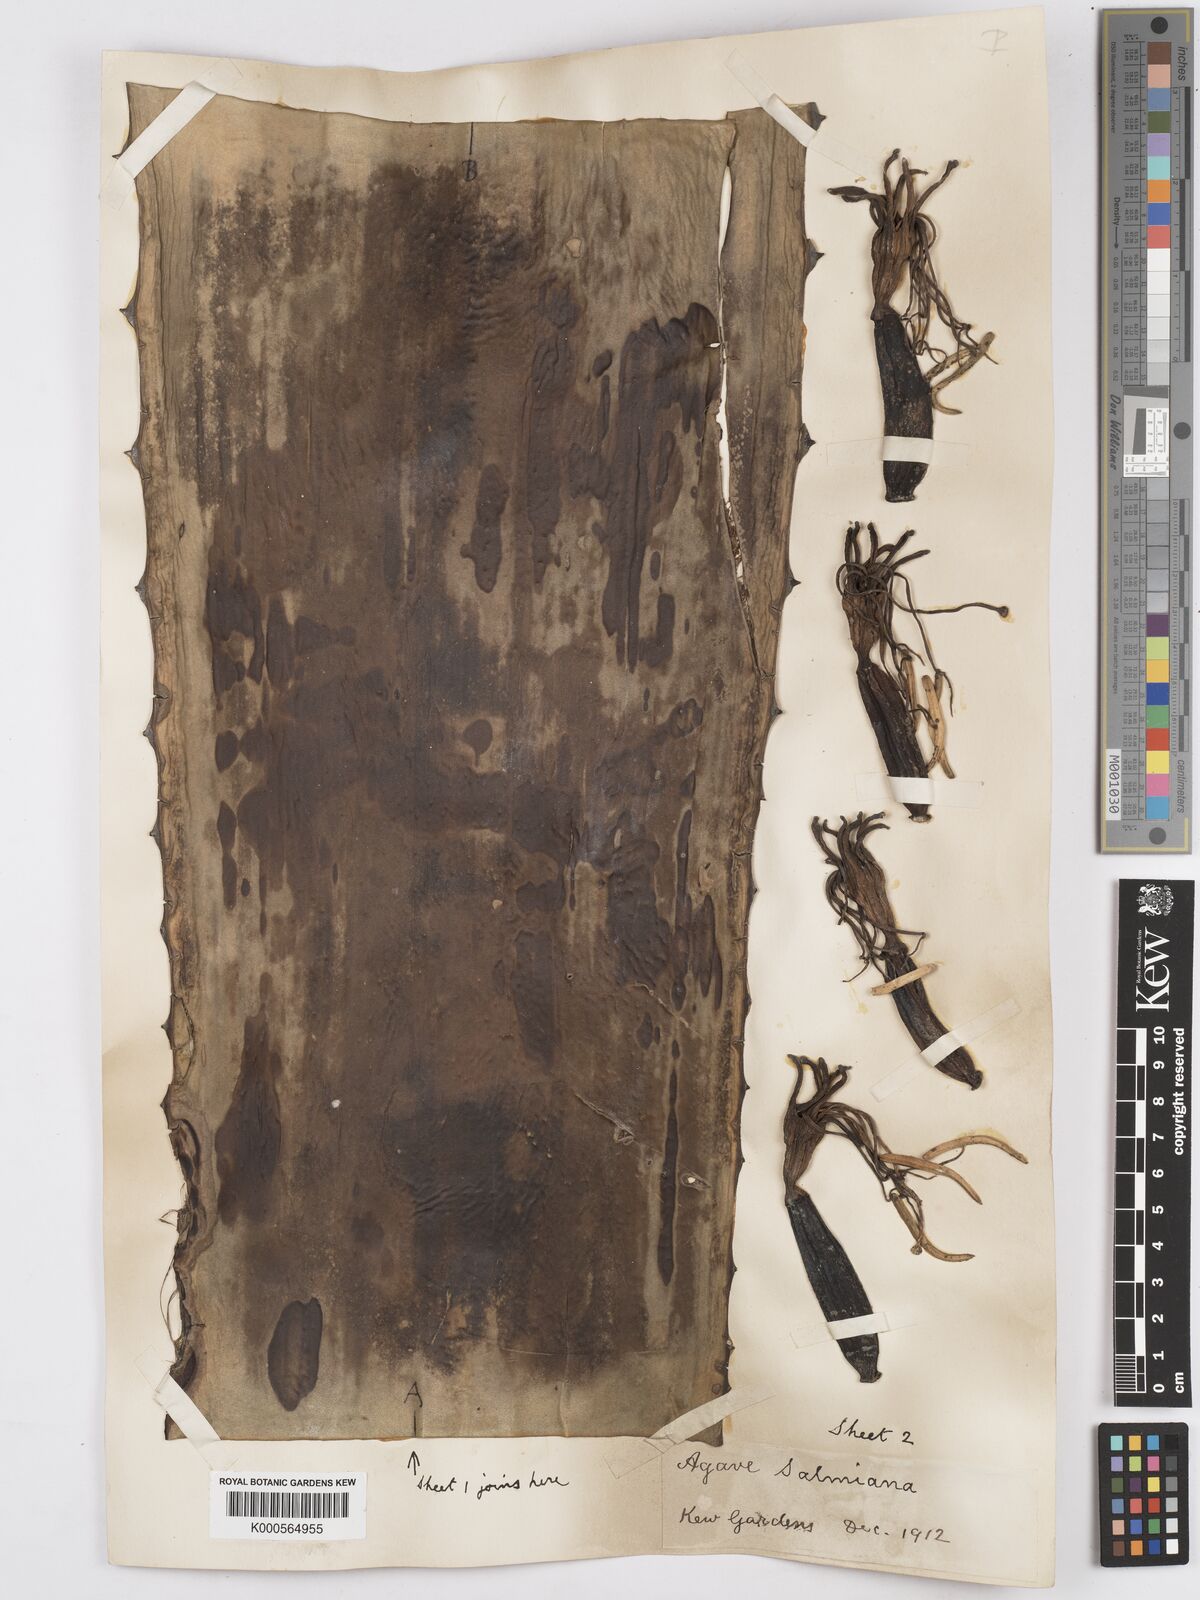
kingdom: Plantae
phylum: Tracheophyta
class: Liliopsida
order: Asparagales
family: Asparagaceae
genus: Agave
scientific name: Agave salmiana
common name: Pulque agave
